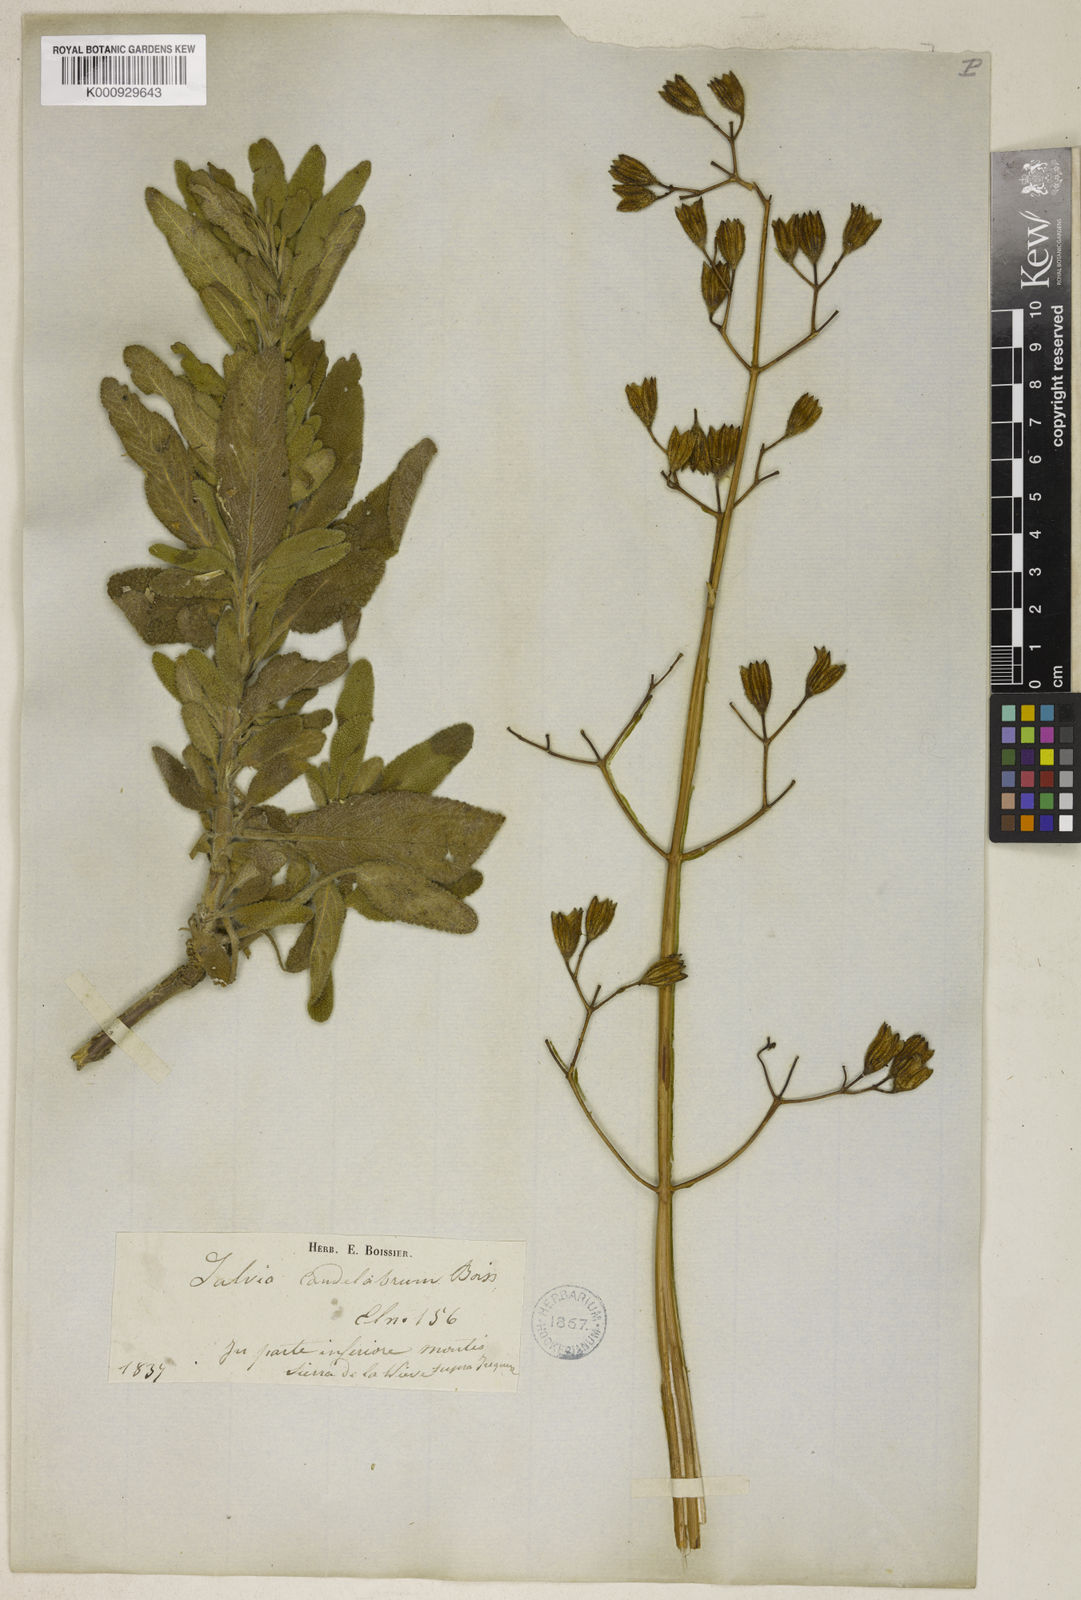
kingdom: Plantae
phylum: Tracheophyta
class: Magnoliopsida
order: Lamiales
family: Lamiaceae
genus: Salvia
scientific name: Salvia candelabrum
